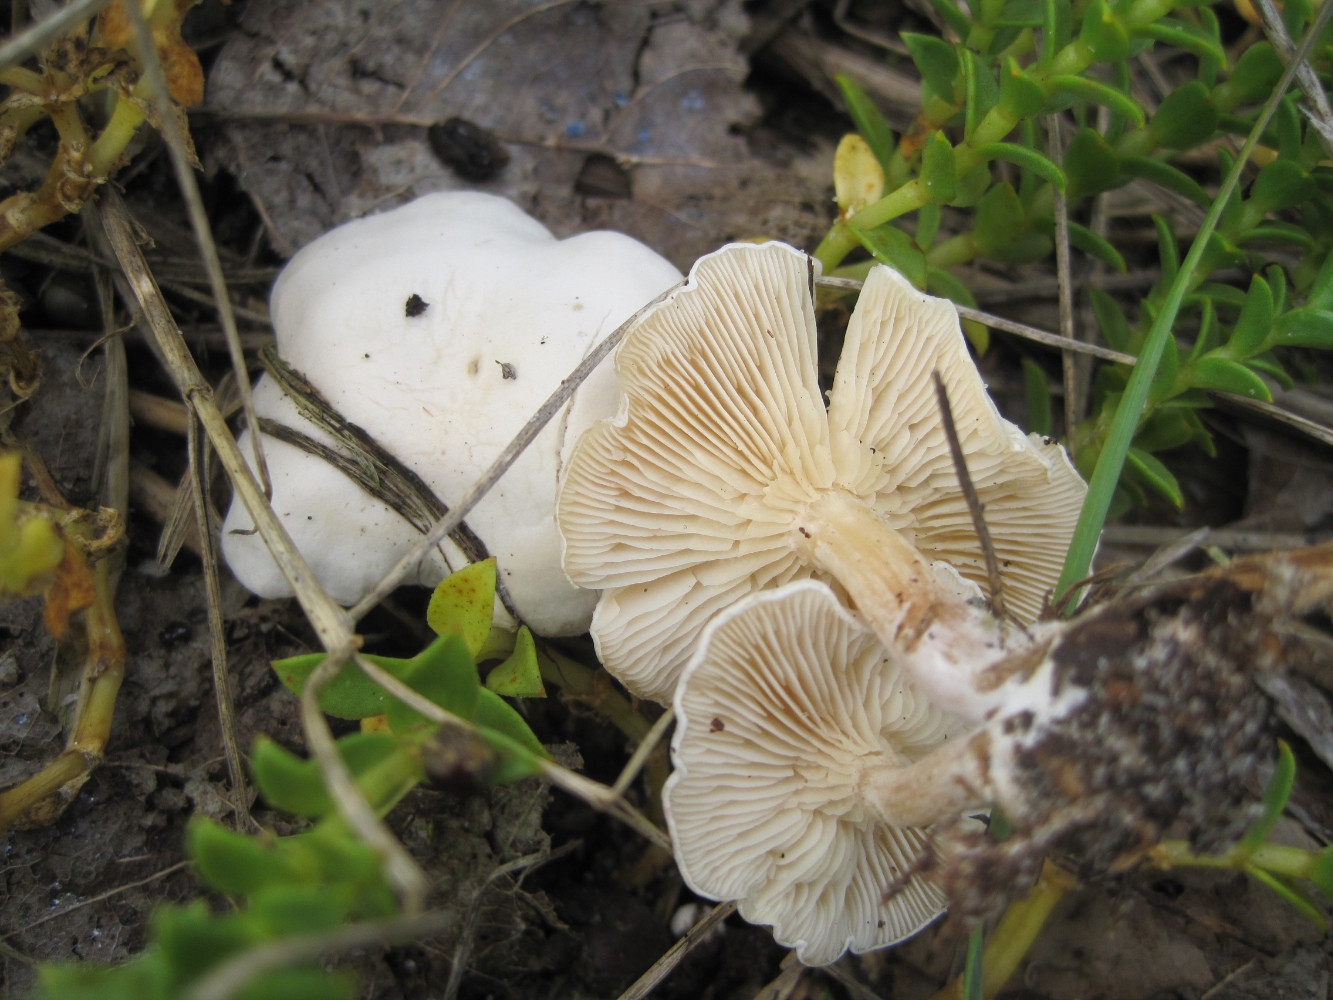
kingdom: Fungi
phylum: Basidiomycota
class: Agaricomycetes
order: Agaricales
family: Entolomataceae
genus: Clitopilus
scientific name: Clitopilus prunulus
